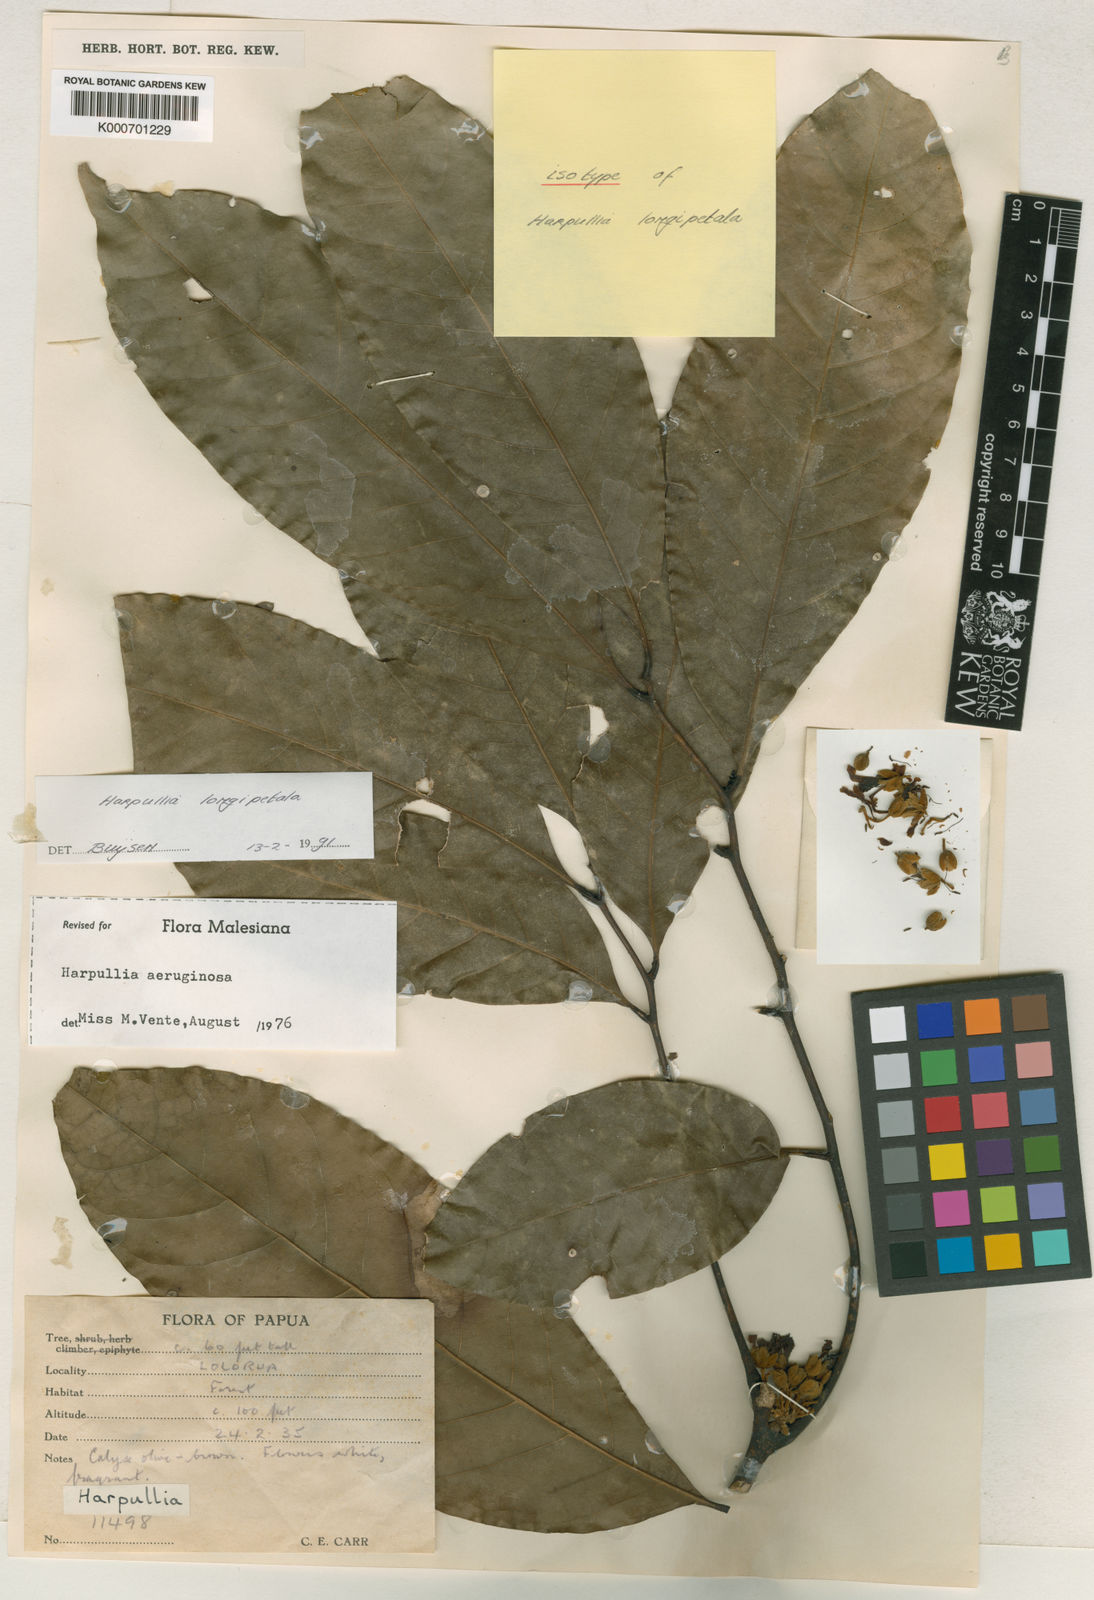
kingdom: Plantae
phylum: Tracheophyta
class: Magnoliopsida
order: Sapindales
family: Sapindaceae
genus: Harpullia
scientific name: Harpullia longipetala
